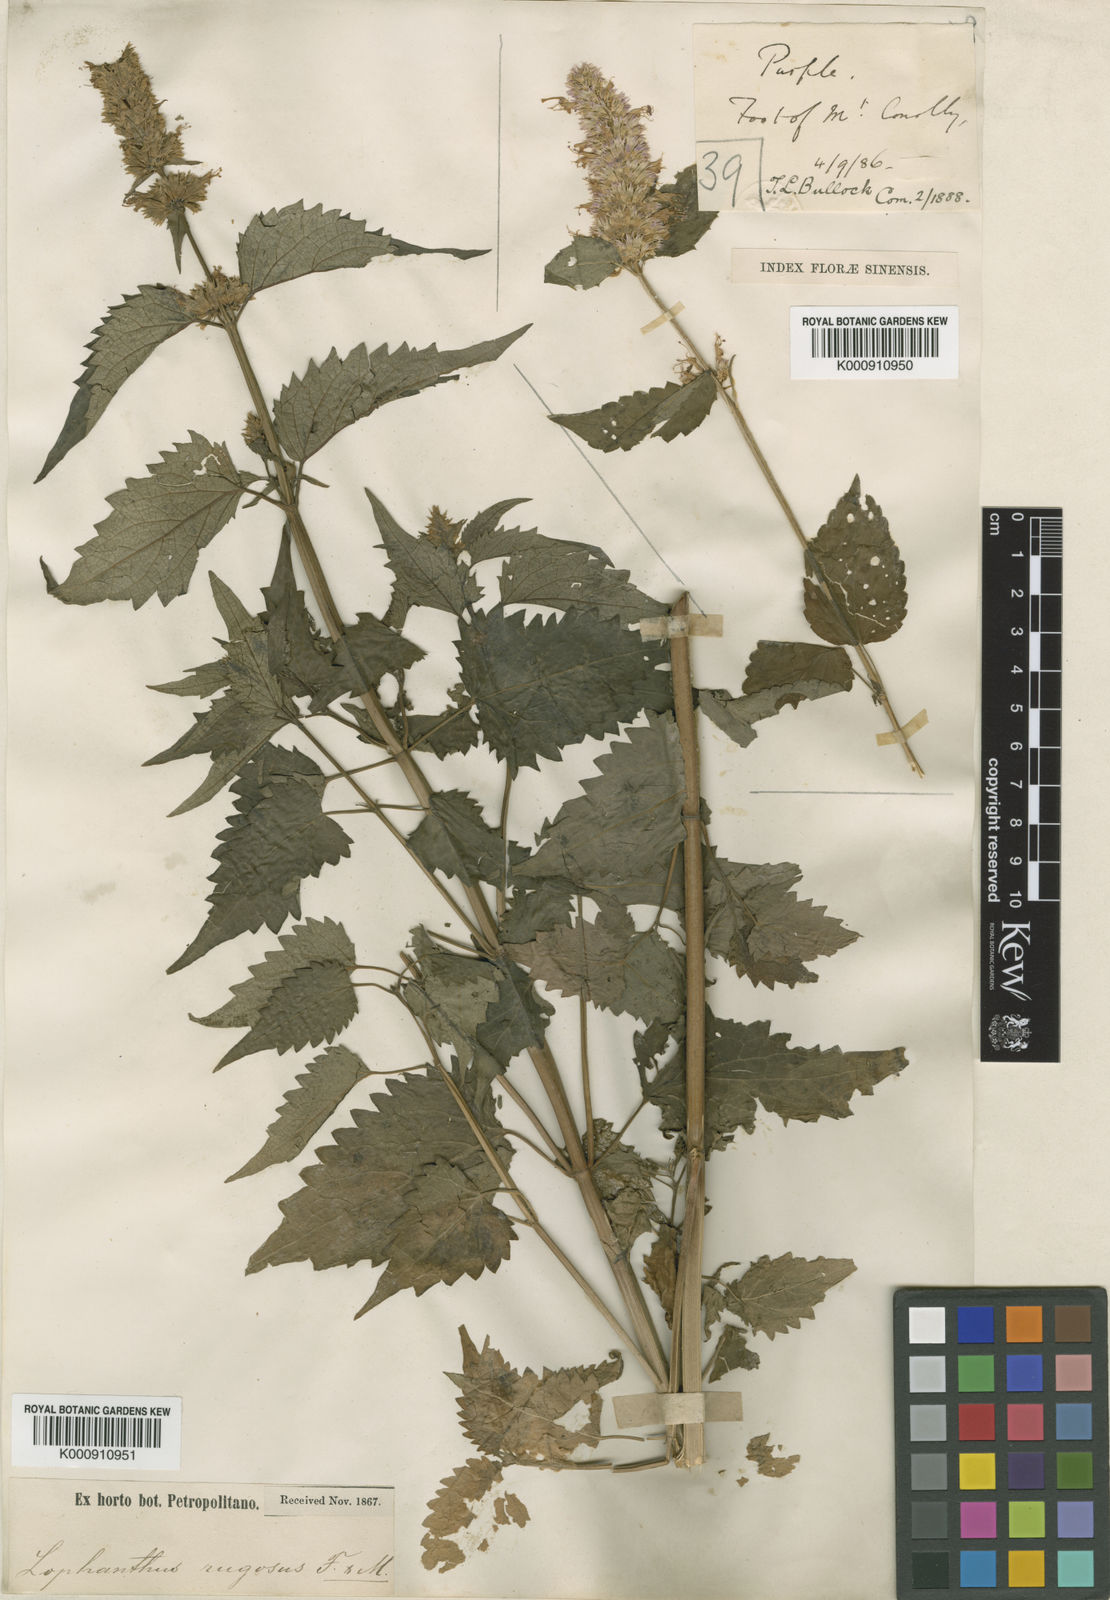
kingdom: Plantae
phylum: Tracheophyta
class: Magnoliopsida
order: Lamiales
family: Lamiaceae
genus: Agastache
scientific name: Agastache rugosa
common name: Mint
